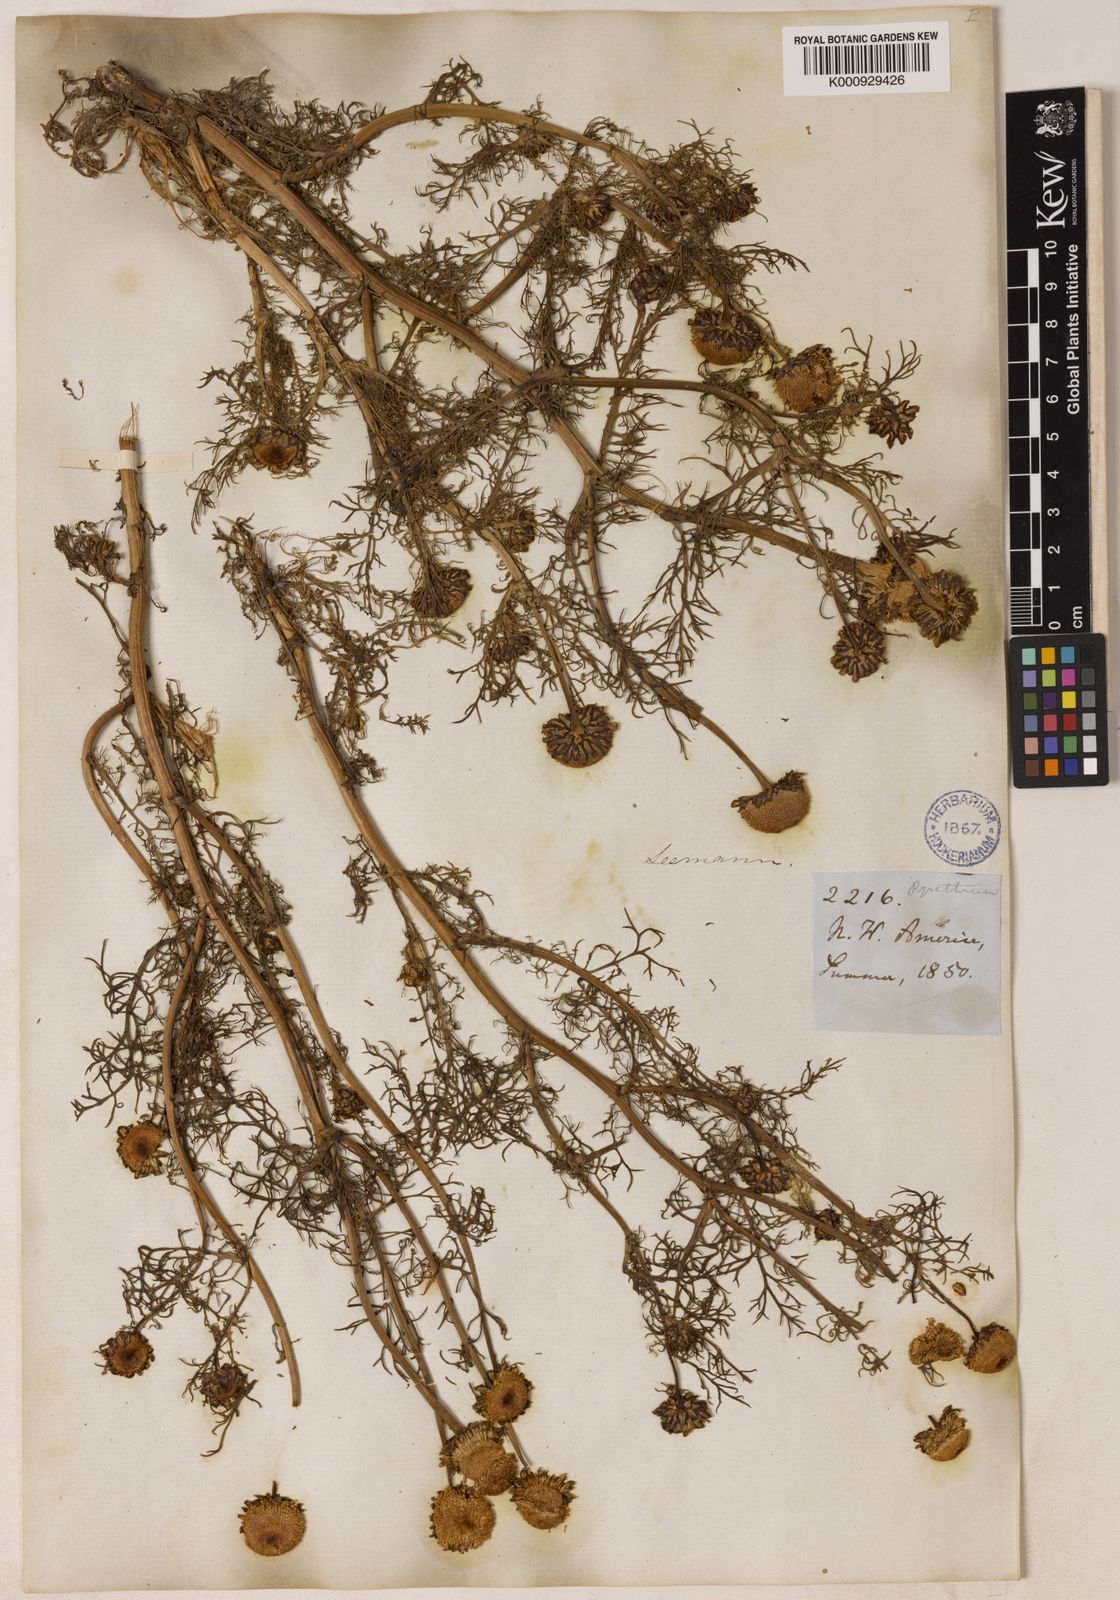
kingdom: Plantae
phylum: Tracheophyta
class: Magnoliopsida
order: Asterales
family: Asteraceae
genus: Tripleurospermum
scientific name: Tripleurospermum
